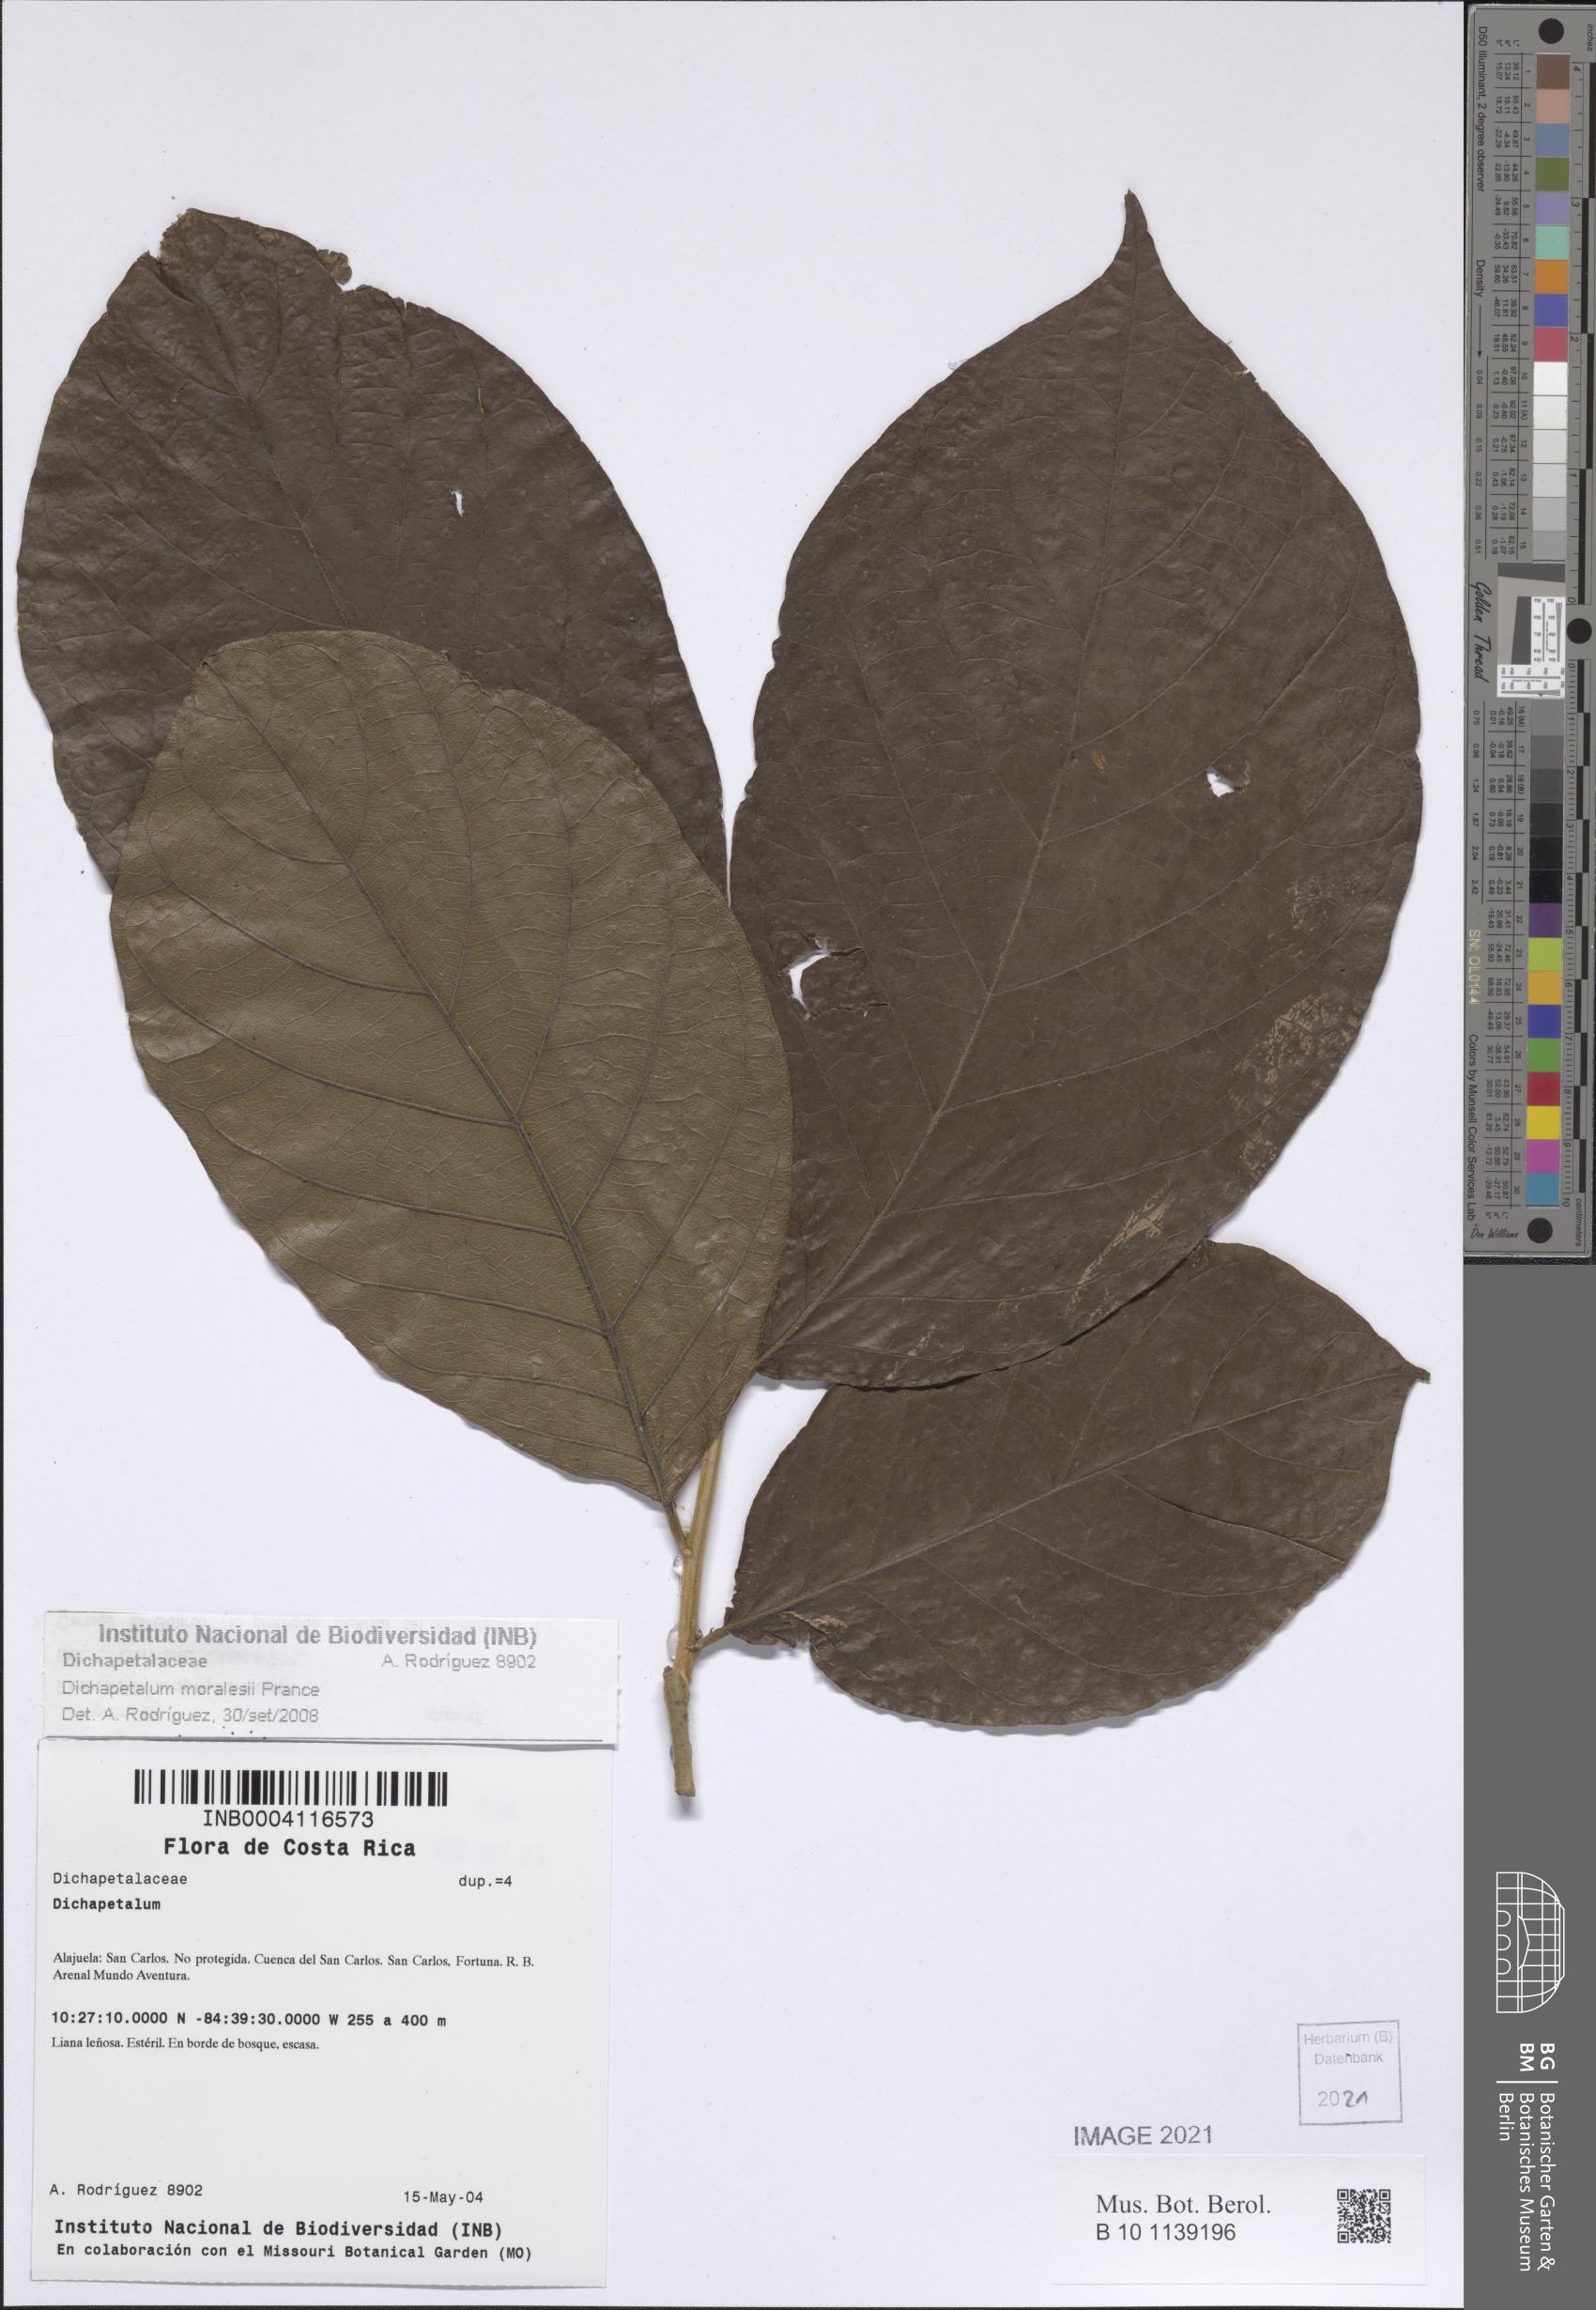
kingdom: Plantae
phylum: Tracheophyta
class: Magnoliopsida
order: Malpighiales
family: Dichapetalaceae
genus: Dichapetalum
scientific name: Dichapetalum moralesii
